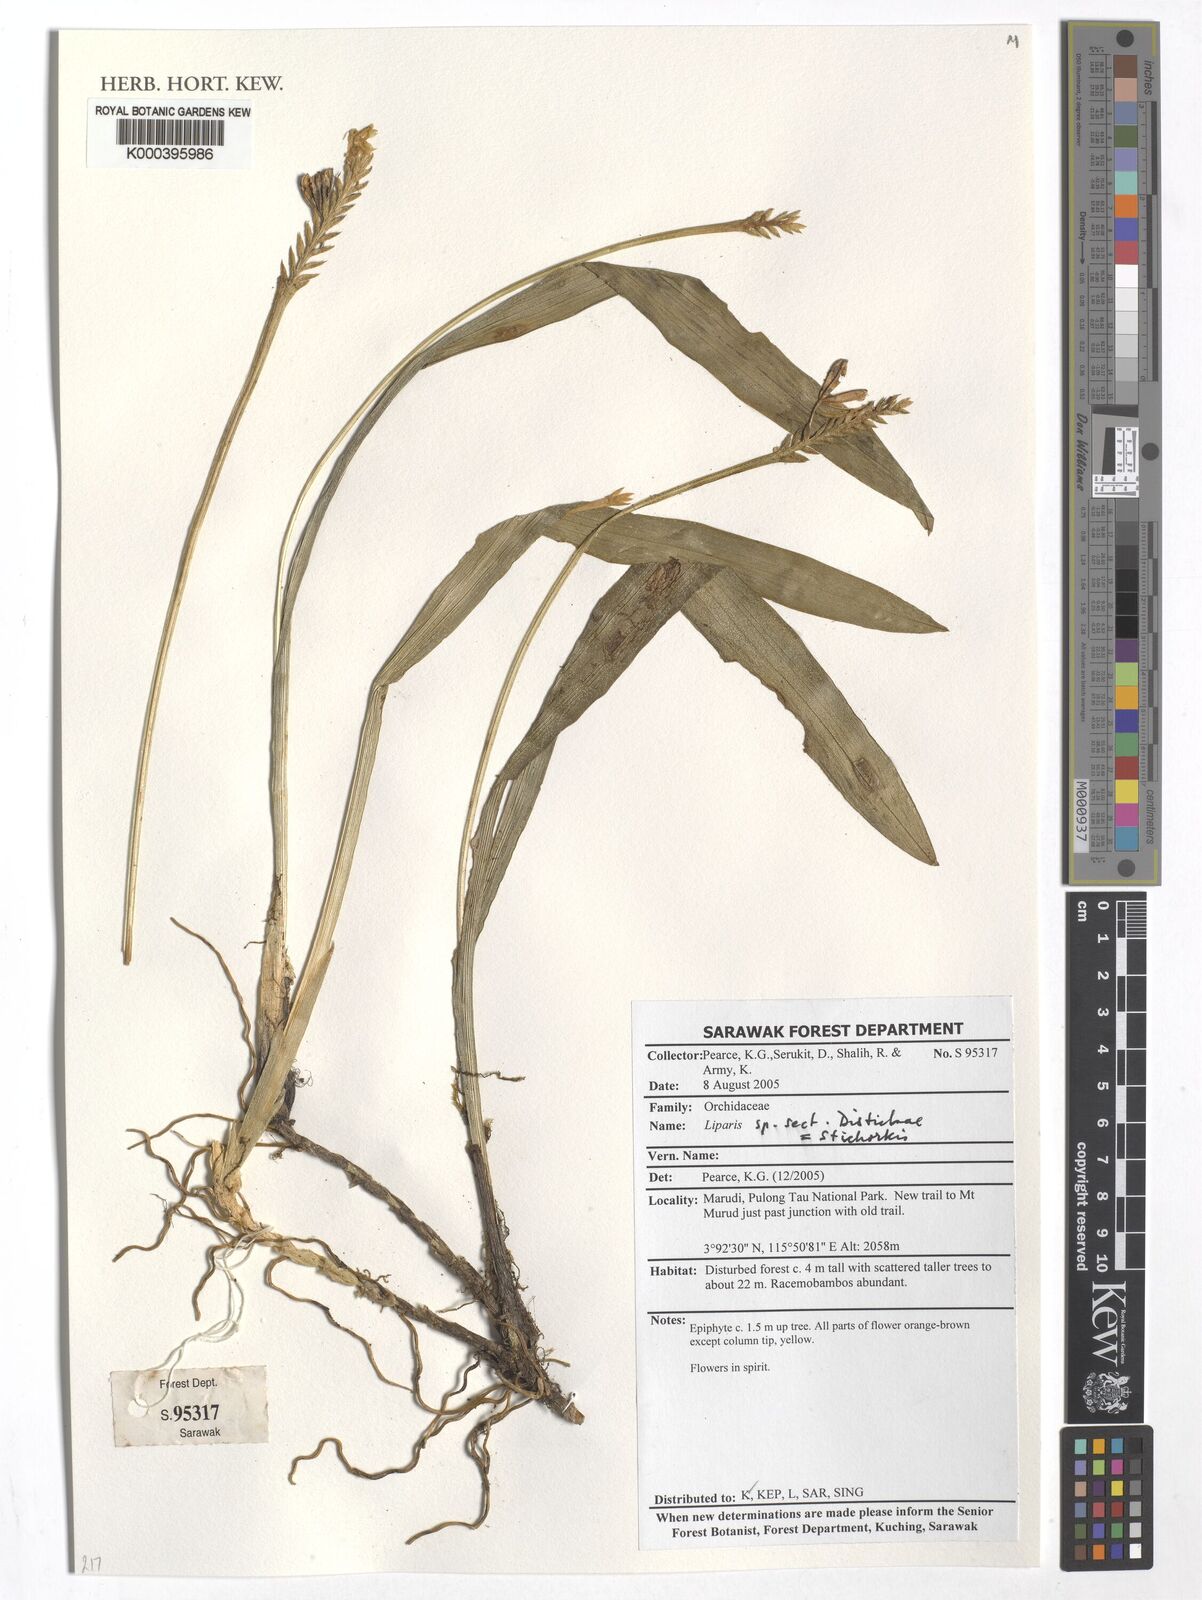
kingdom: Plantae
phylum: Tracheophyta
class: Liliopsida
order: Asparagales
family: Orchidaceae
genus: Liparis
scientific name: Liparis
